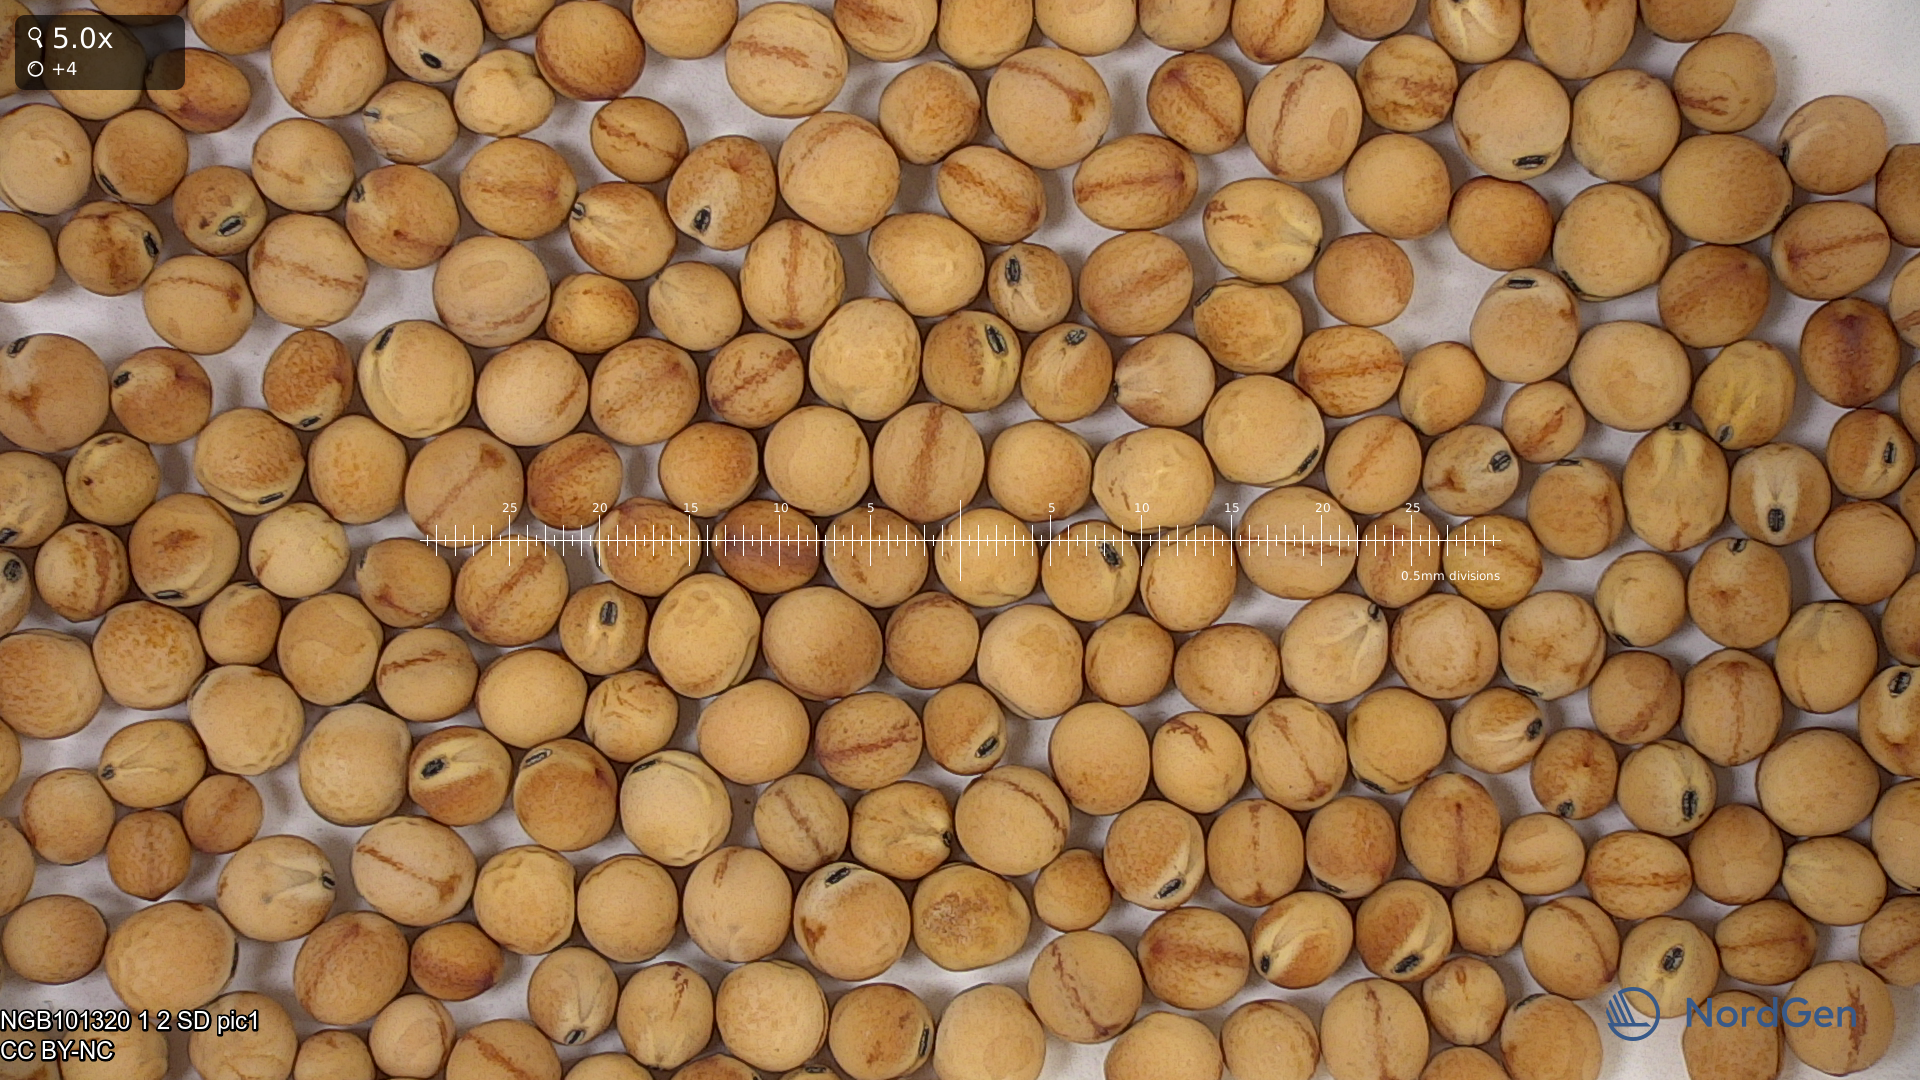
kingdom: Plantae
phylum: Tracheophyta
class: Magnoliopsida
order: Fabales
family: Fabaceae
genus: Lathyrus
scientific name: Lathyrus oleraceus
